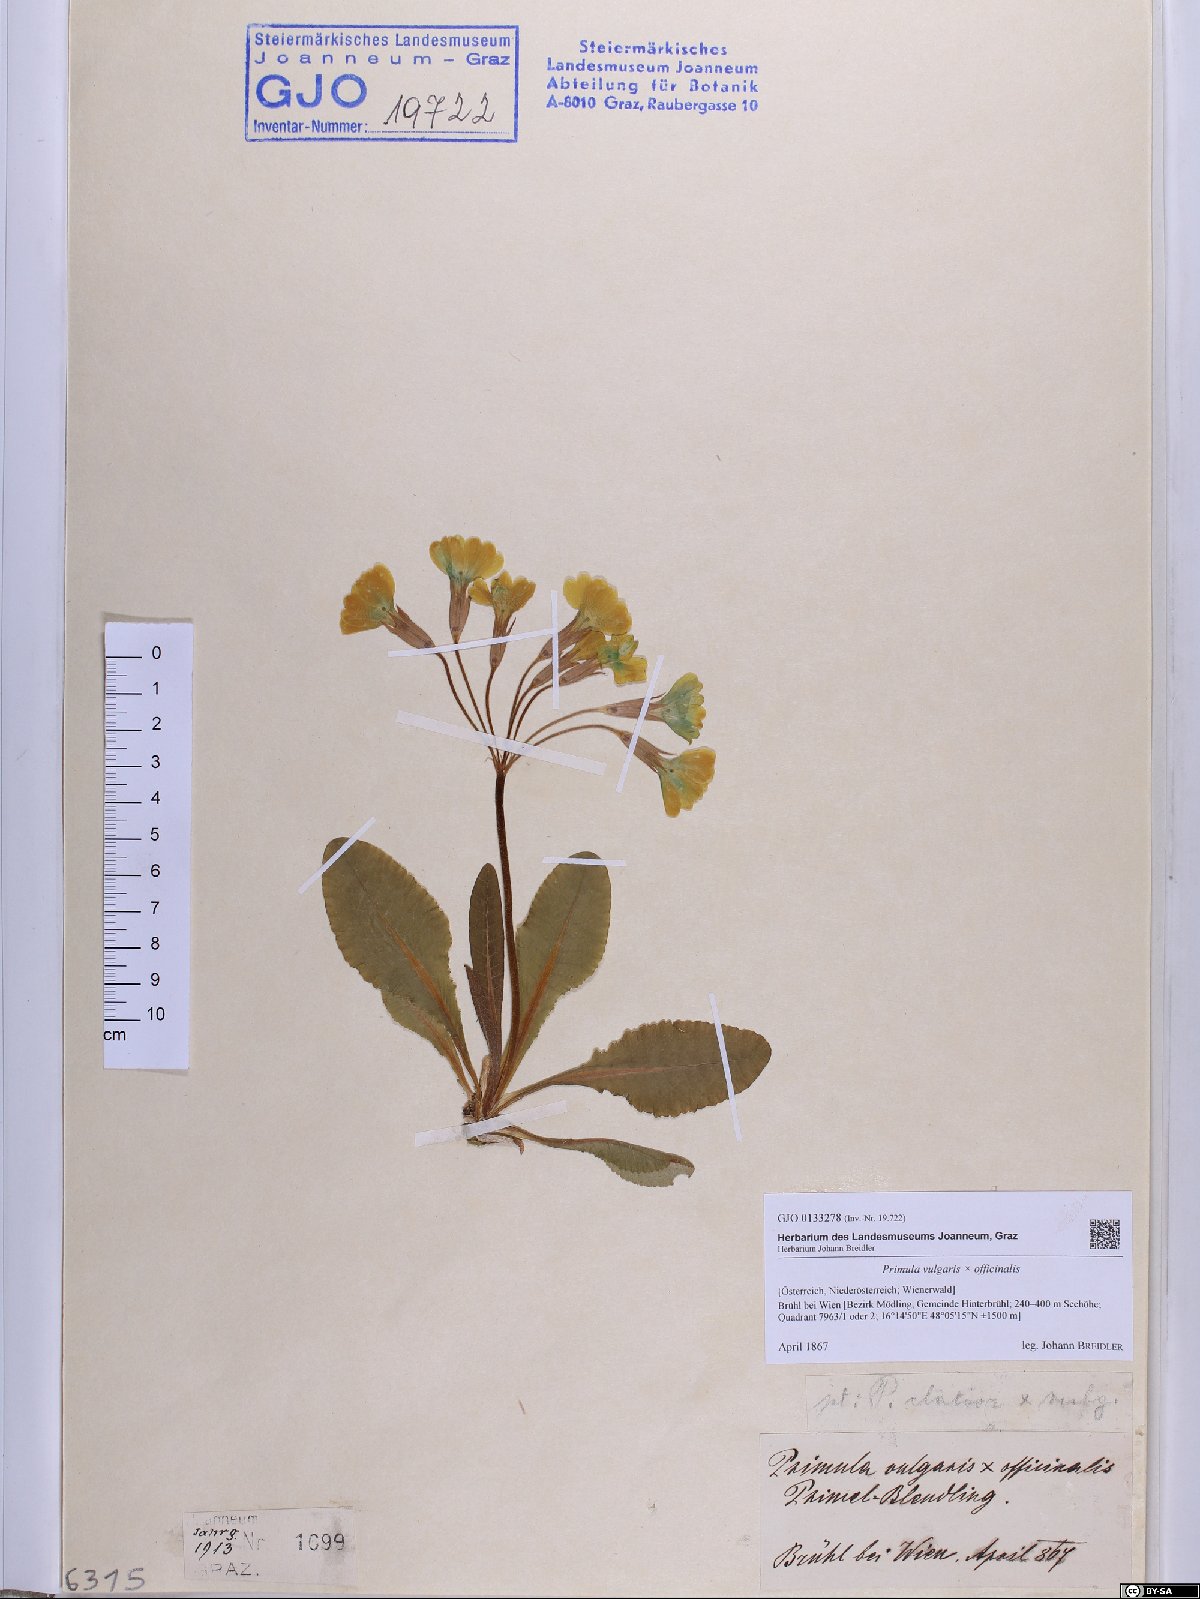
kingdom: Plantae
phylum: Tracheophyta
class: Magnoliopsida
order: Ericales
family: Primulaceae
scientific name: Primulaceae
